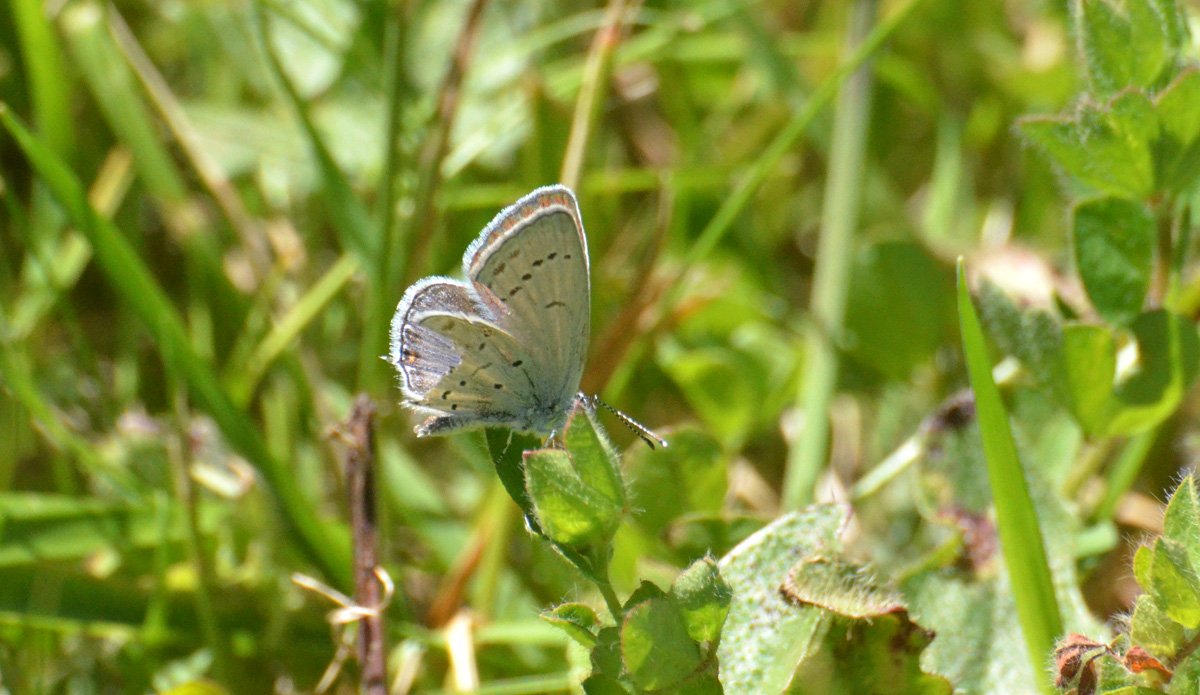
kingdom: Animalia
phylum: Arthropoda
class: Insecta
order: Lepidoptera
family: Lycaenidae
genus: Elkalyce
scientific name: Elkalyce comyntas
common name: Eastern Tailed-Blue
